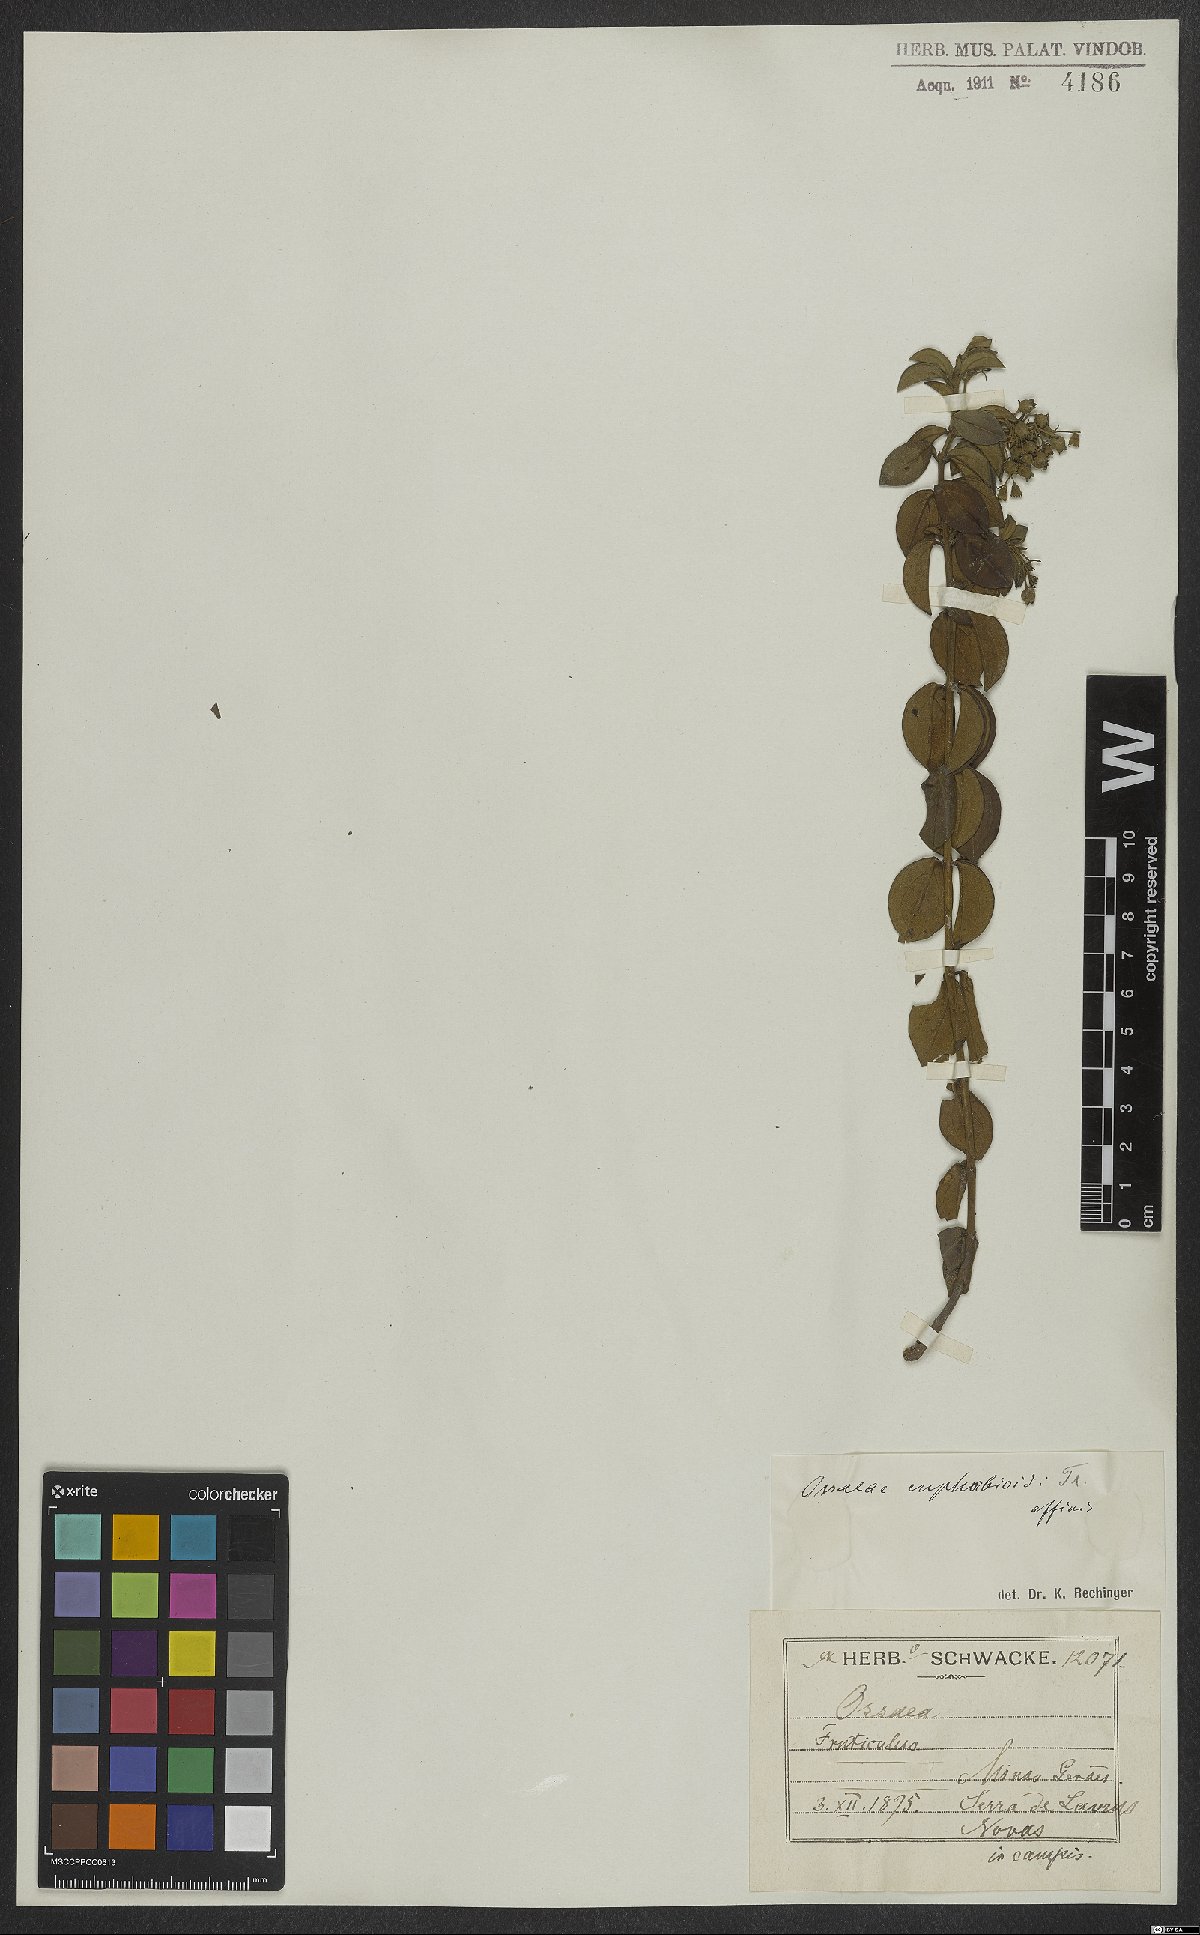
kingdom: Plantae
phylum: Tracheophyta
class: Magnoliopsida
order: Myrtales
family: Melastomataceae
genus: Miconia
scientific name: Miconia euphorbioides
